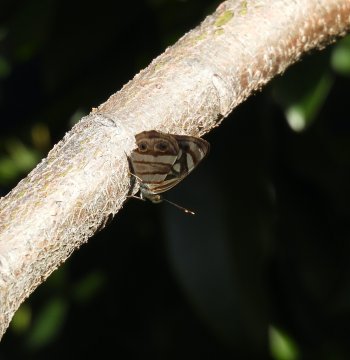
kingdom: Animalia
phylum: Arthropoda
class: Insecta
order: Lepidoptera
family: Nymphalidae
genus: Dynamine
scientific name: Dynamine mylitta
